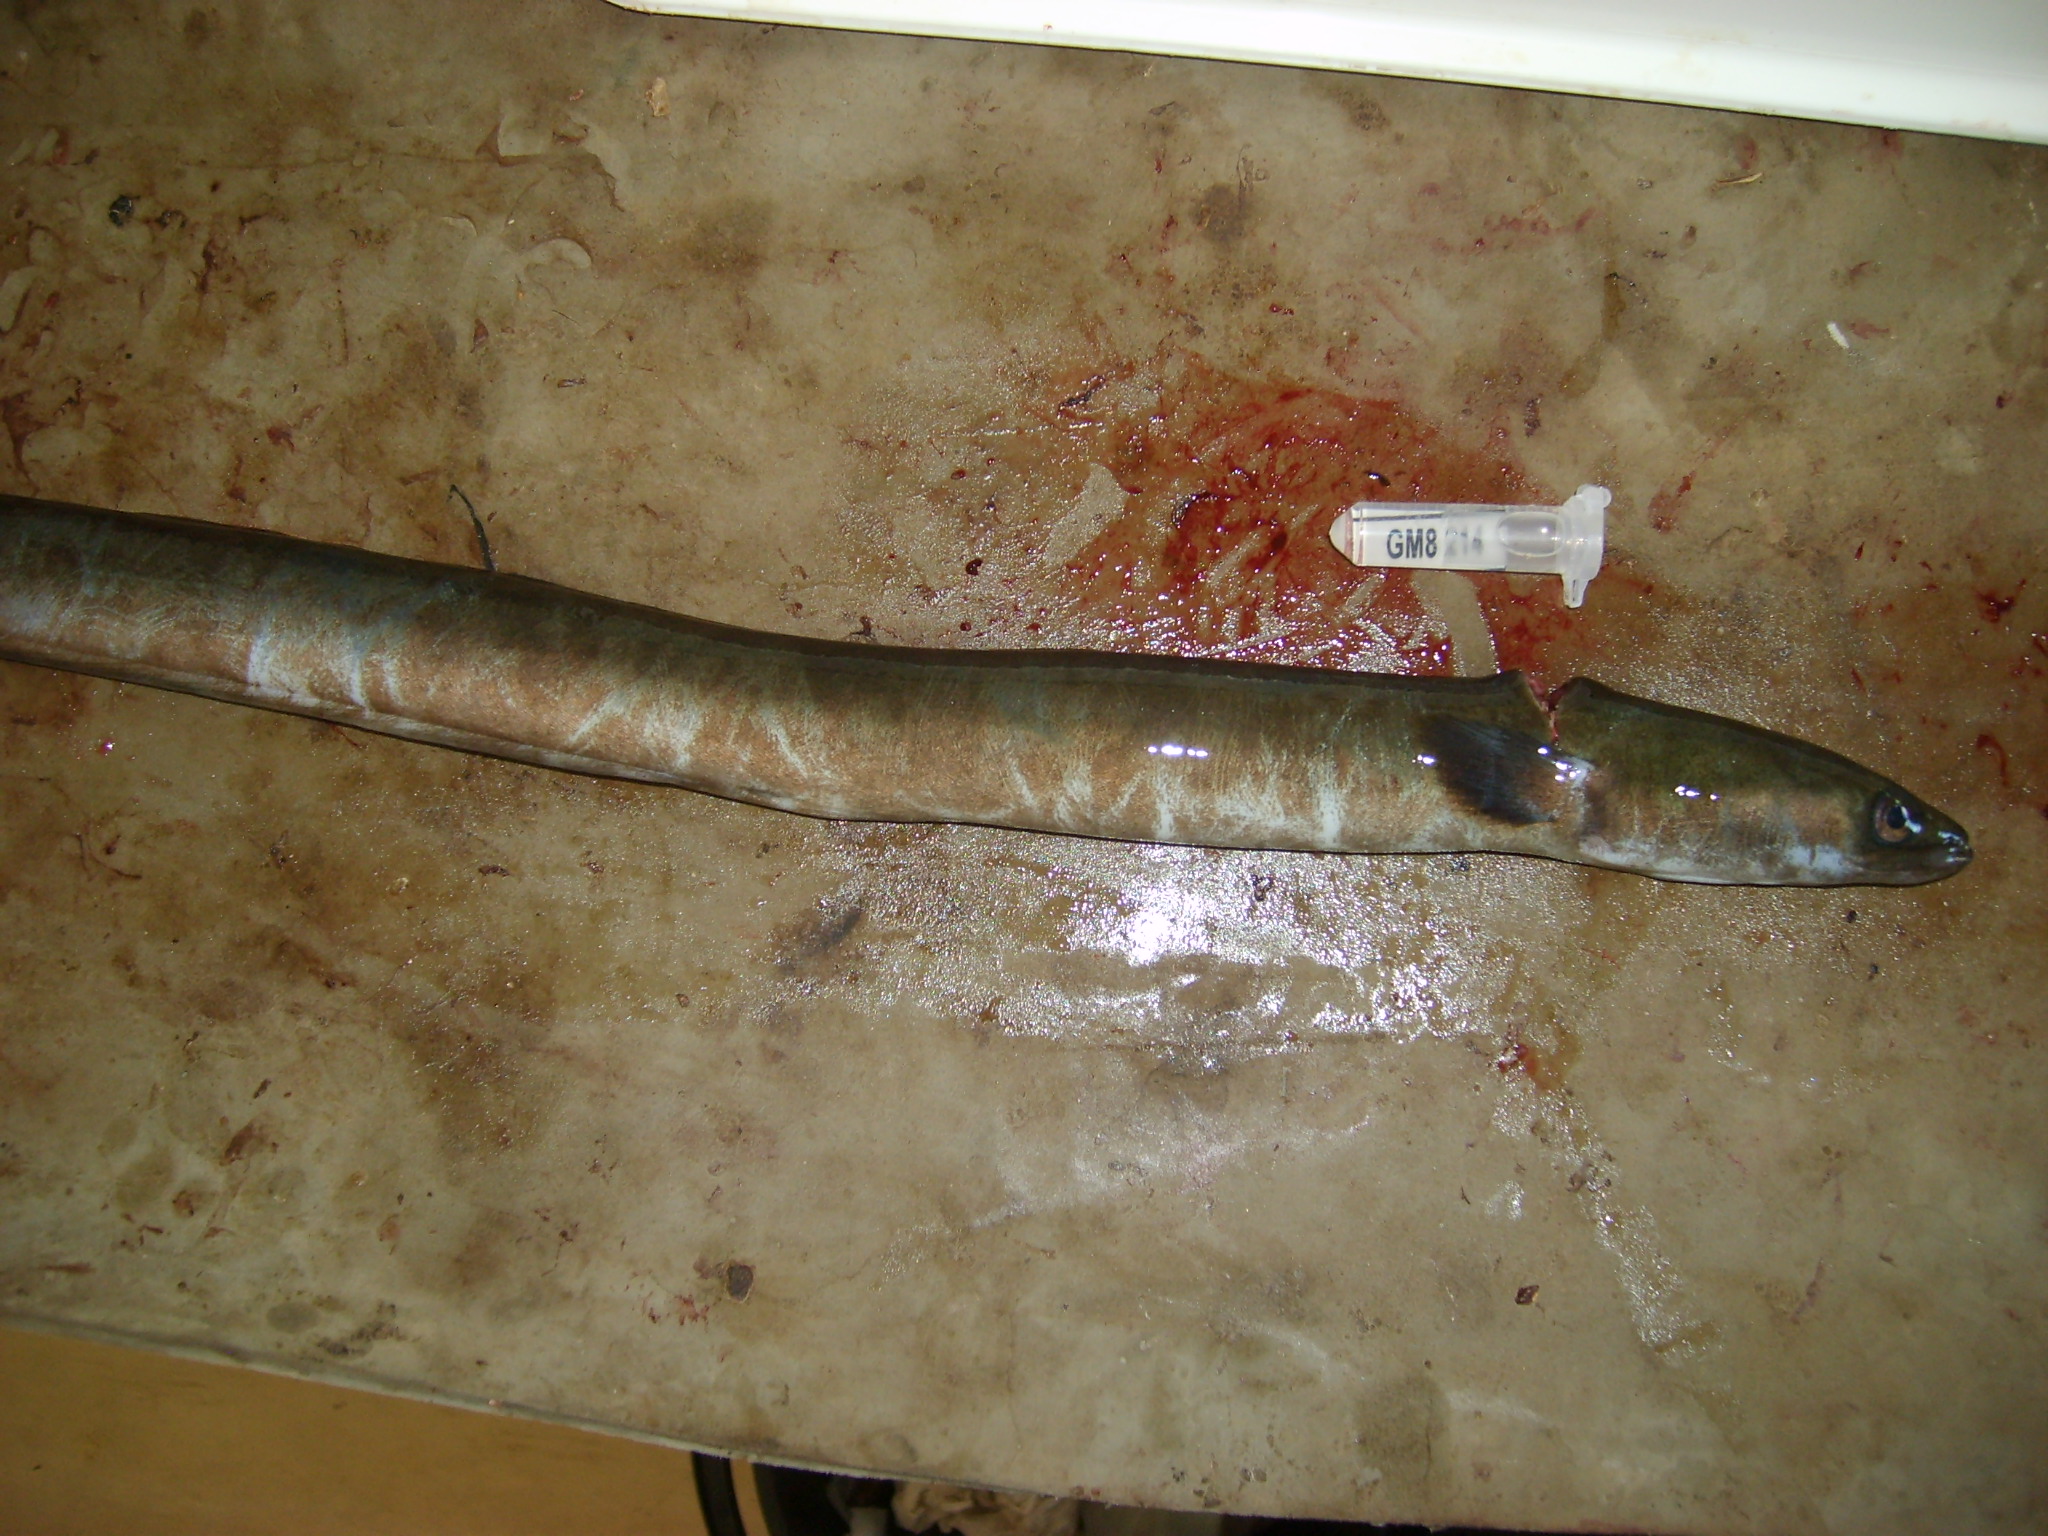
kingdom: Animalia
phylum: Chordata
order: Anguilliformes
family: Anguillidae
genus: Anguilla
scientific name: Anguilla mossambica
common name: African longfin eel
